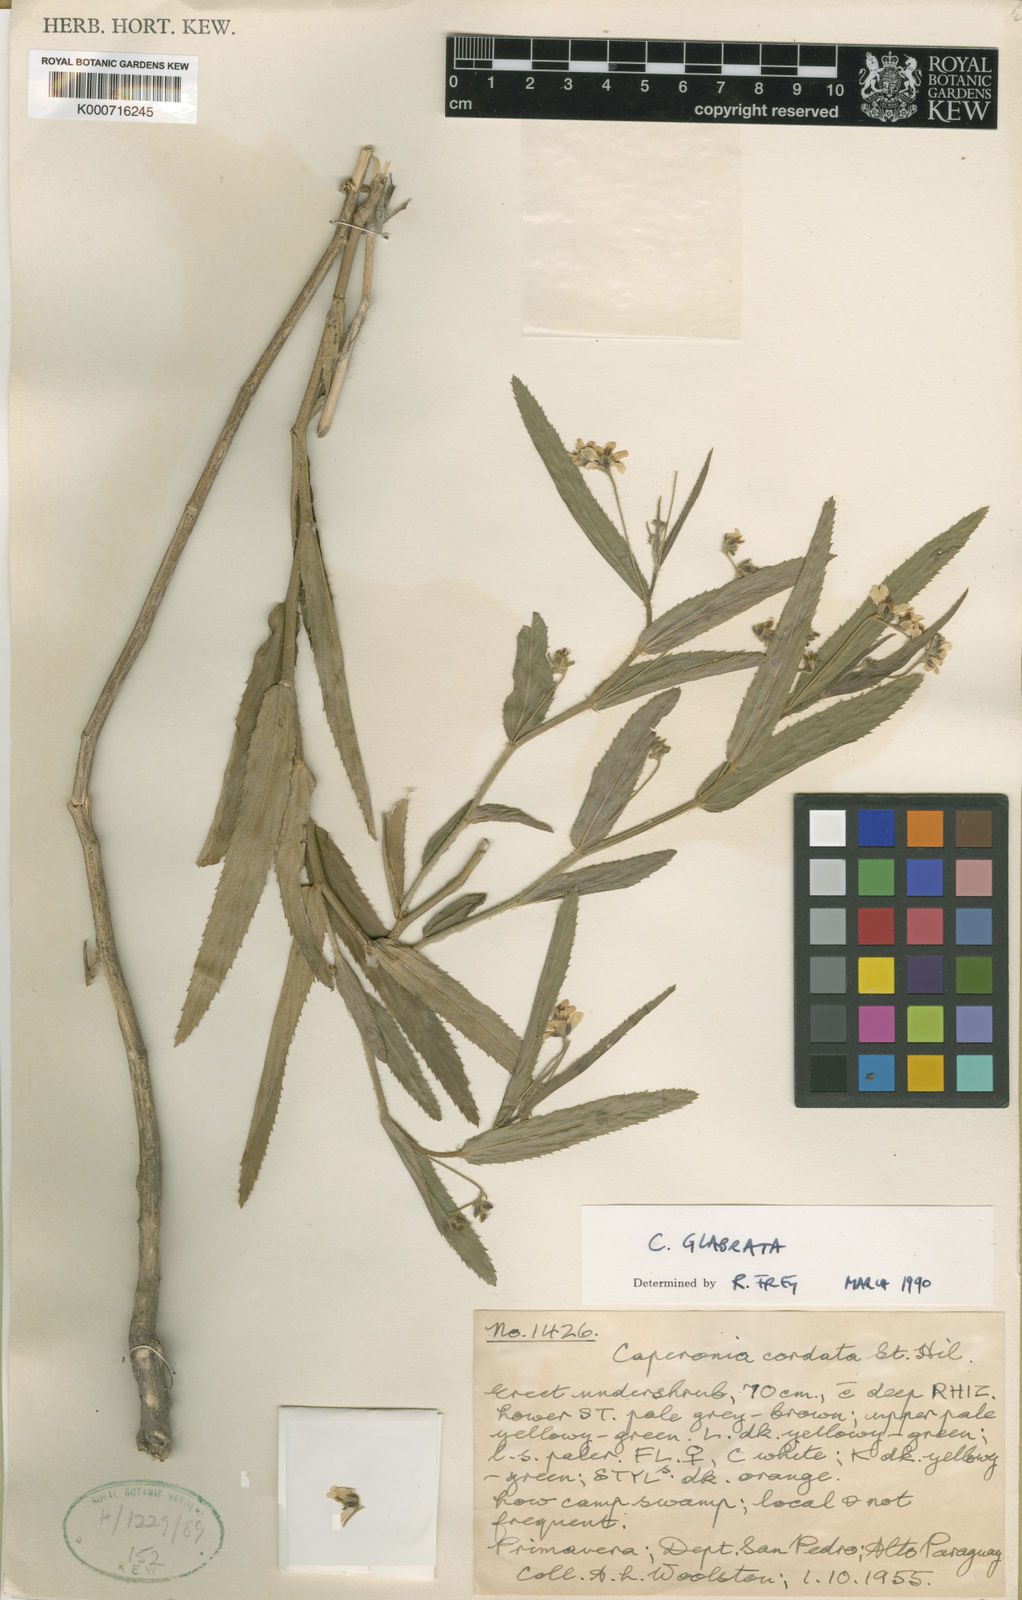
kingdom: Plantae
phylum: Tracheophyta
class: Magnoliopsida
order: Malpighiales
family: Euphorbiaceae
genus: Caperonia
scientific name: Caperonia glabrata
